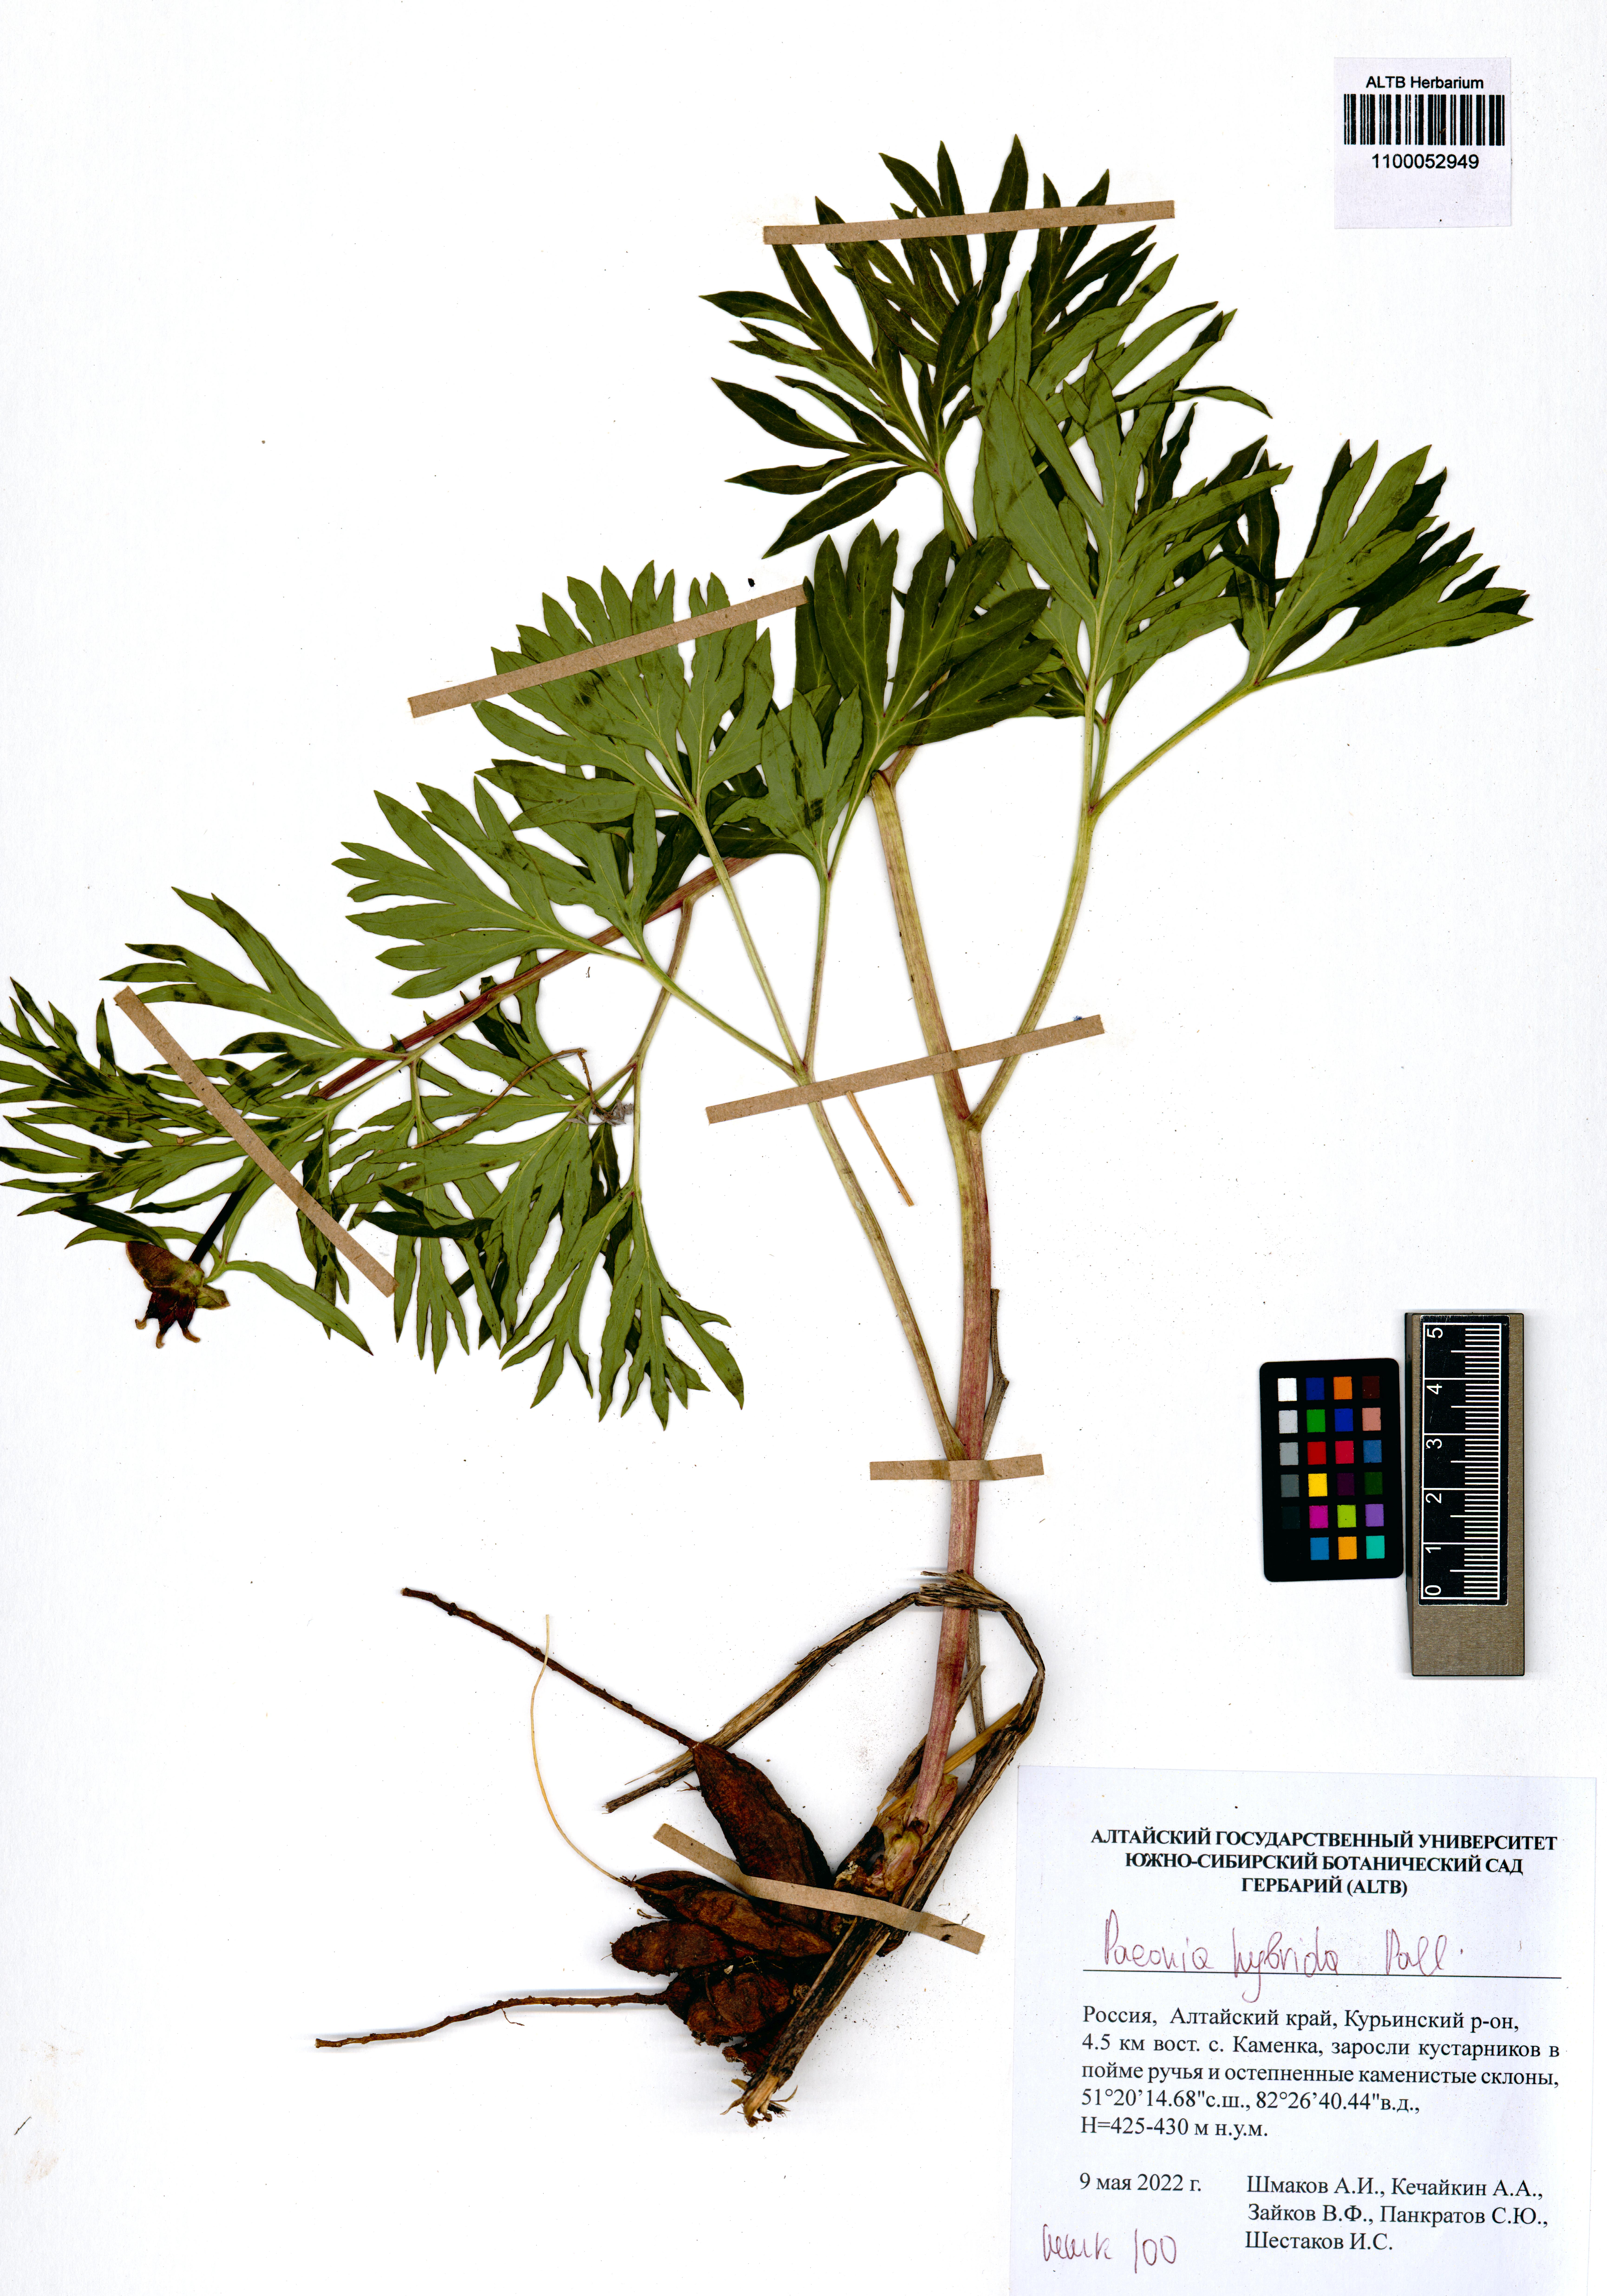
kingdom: Plantae
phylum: Tracheophyta
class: Magnoliopsida
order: Saxifragales
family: Paeoniaceae
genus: Paeonia
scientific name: Paeonia
